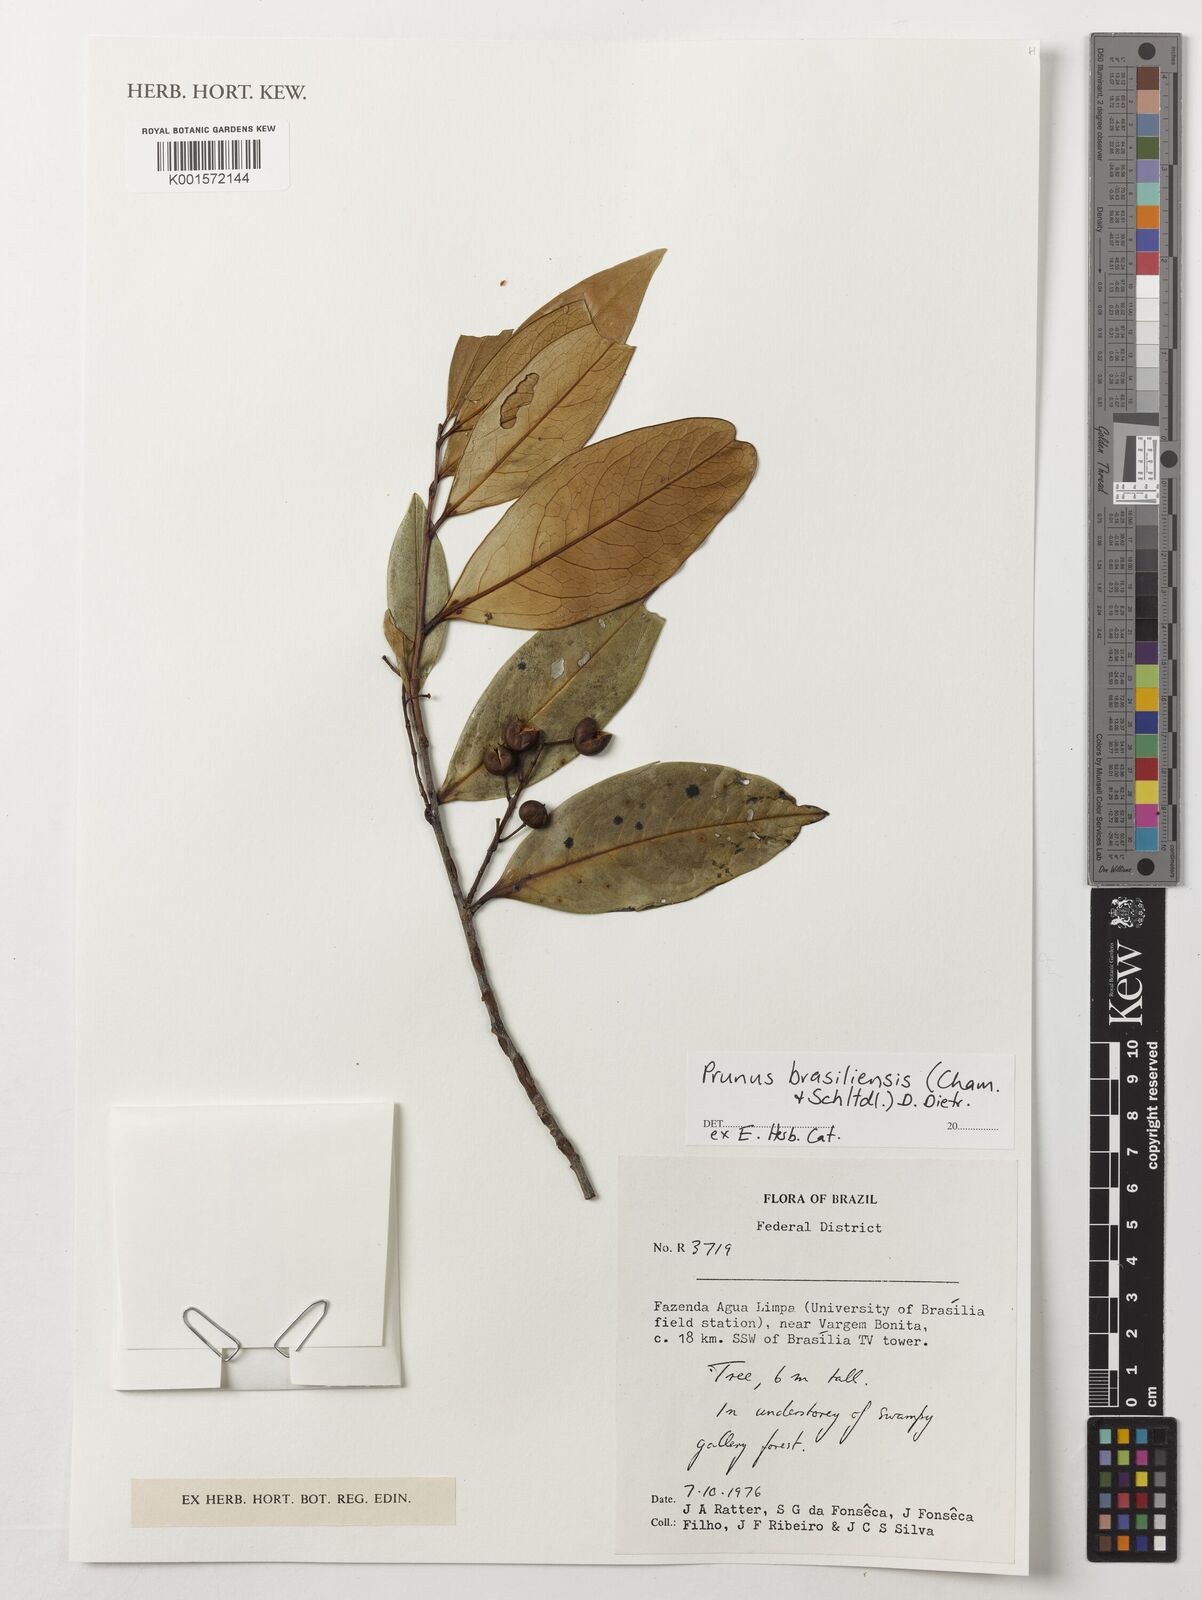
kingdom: Plantae
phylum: Tracheophyta
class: Magnoliopsida
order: Rosales
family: Rosaceae
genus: Prunus
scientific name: Prunus brasiliensis
